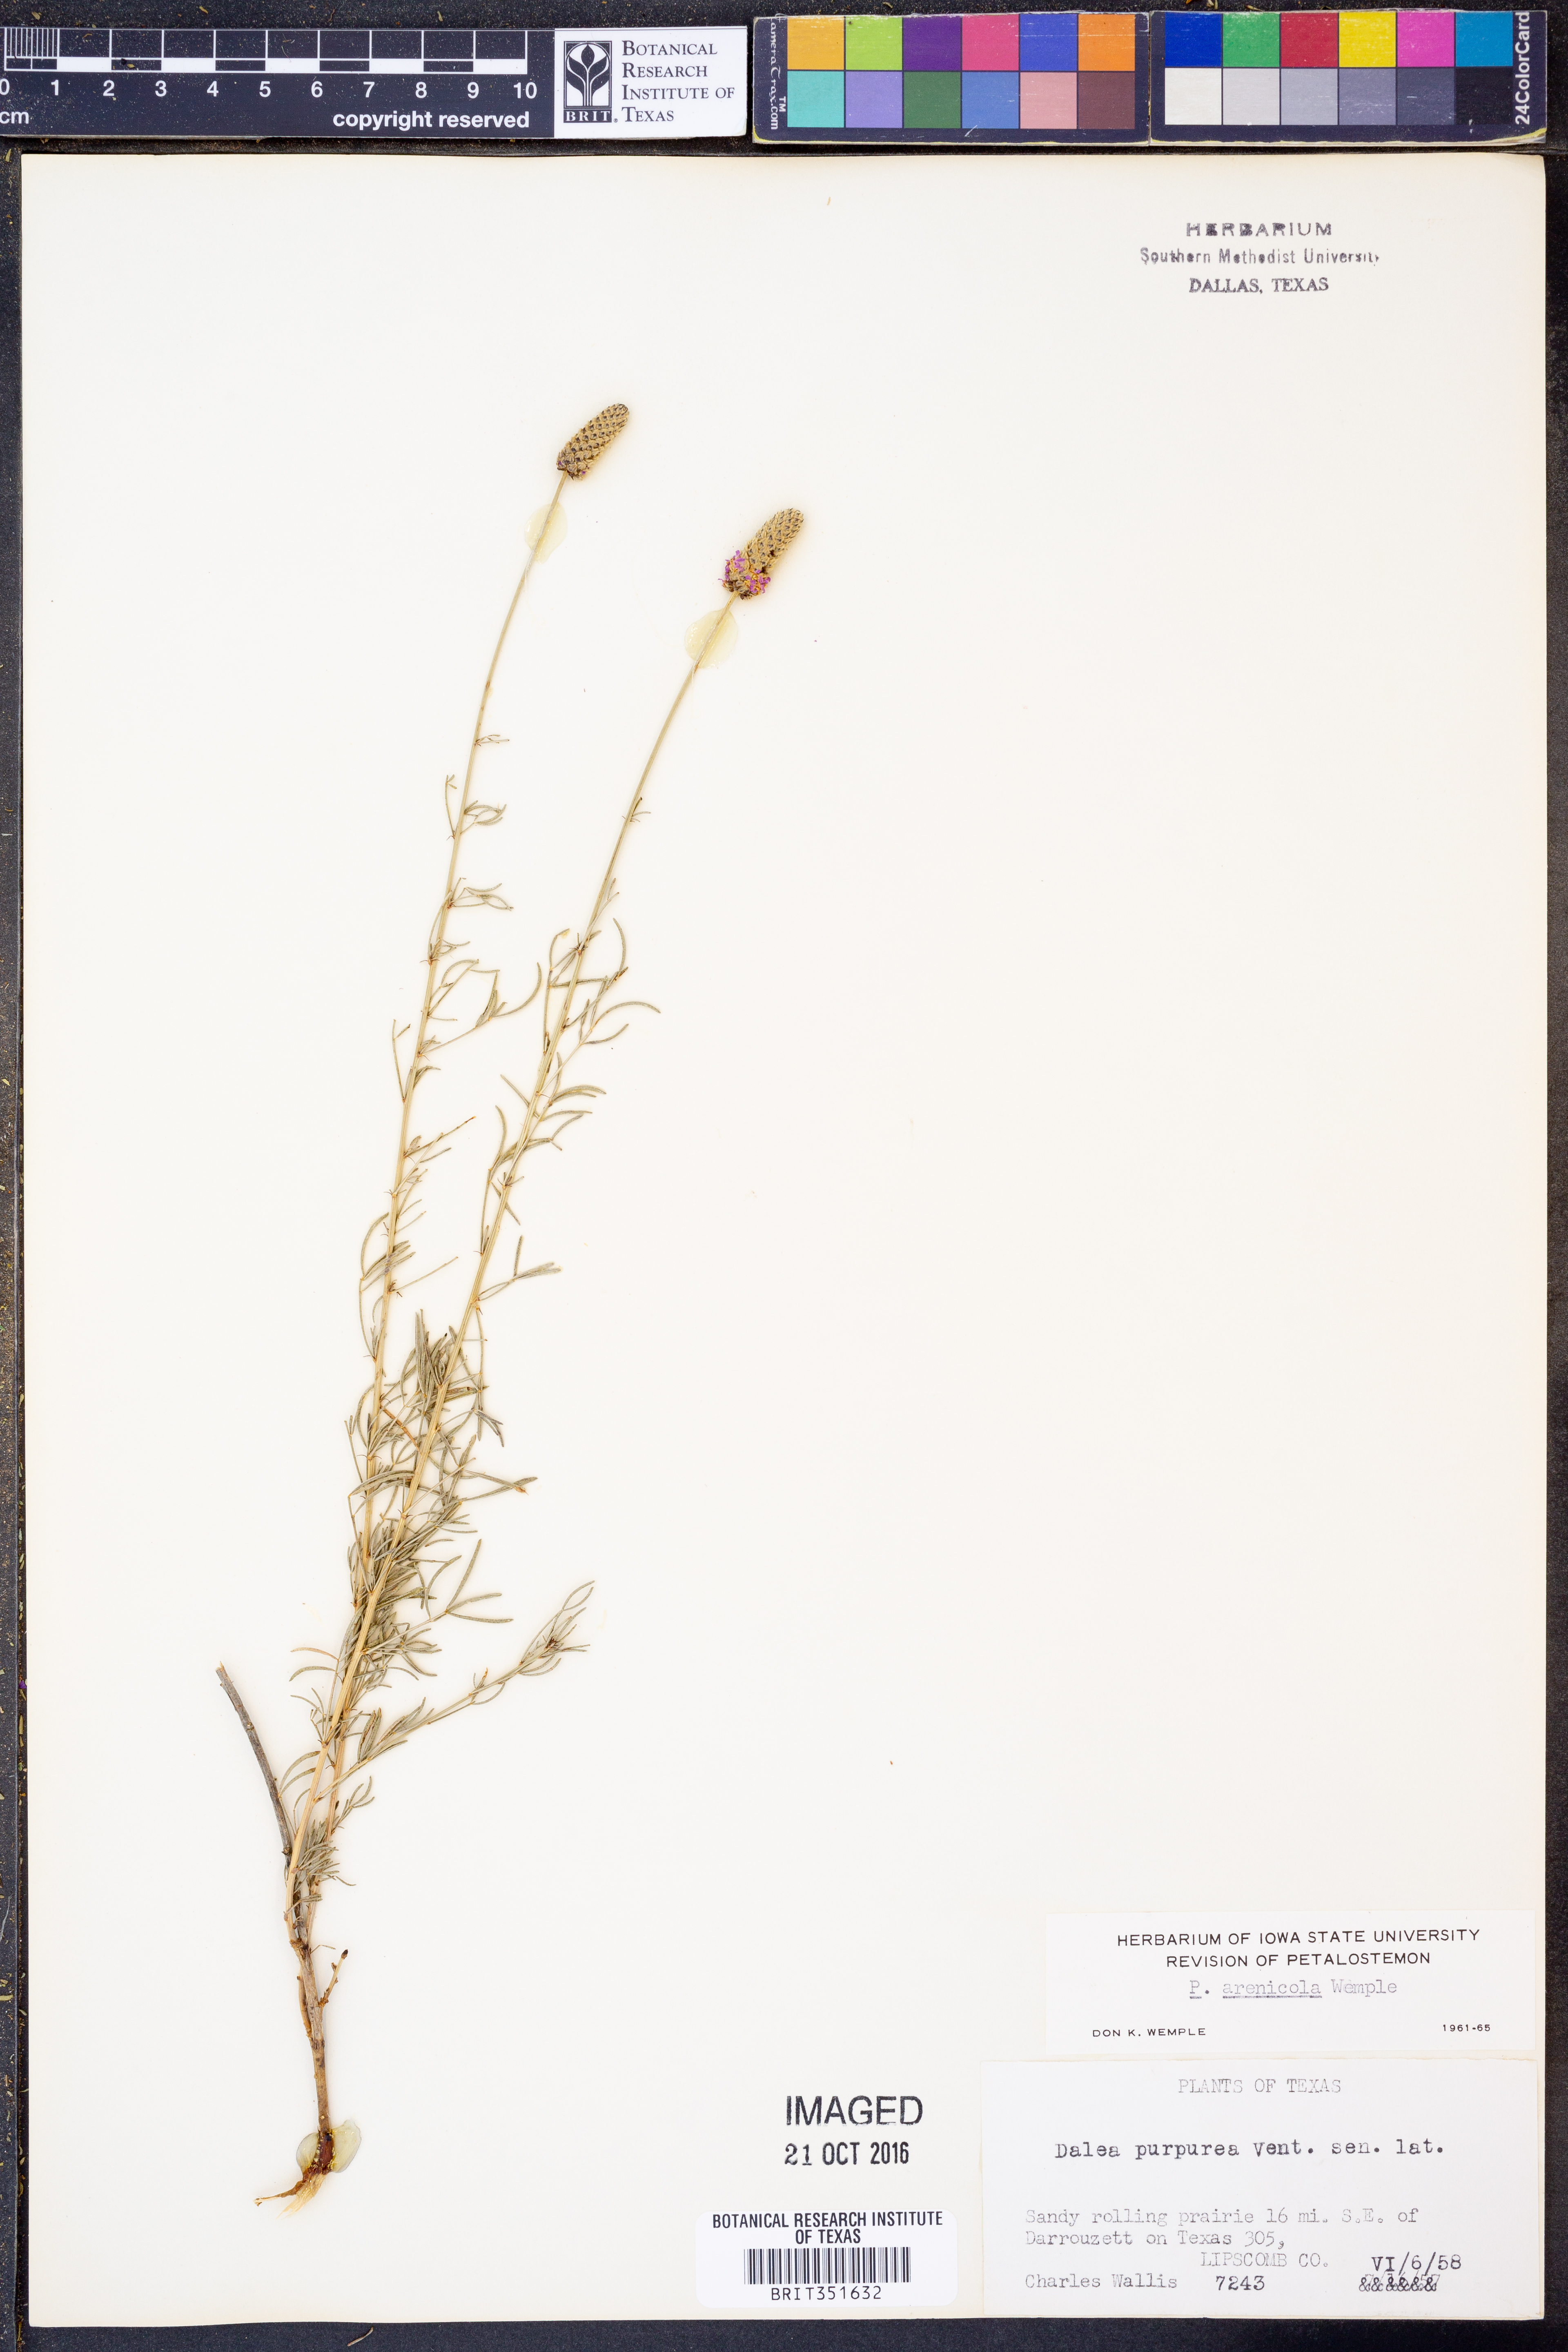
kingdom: Plantae
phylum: Tracheophyta
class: Magnoliopsida
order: Fabales
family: Fabaceae
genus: Dalea
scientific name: Dalea purpurea
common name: Purple prairie-clover
